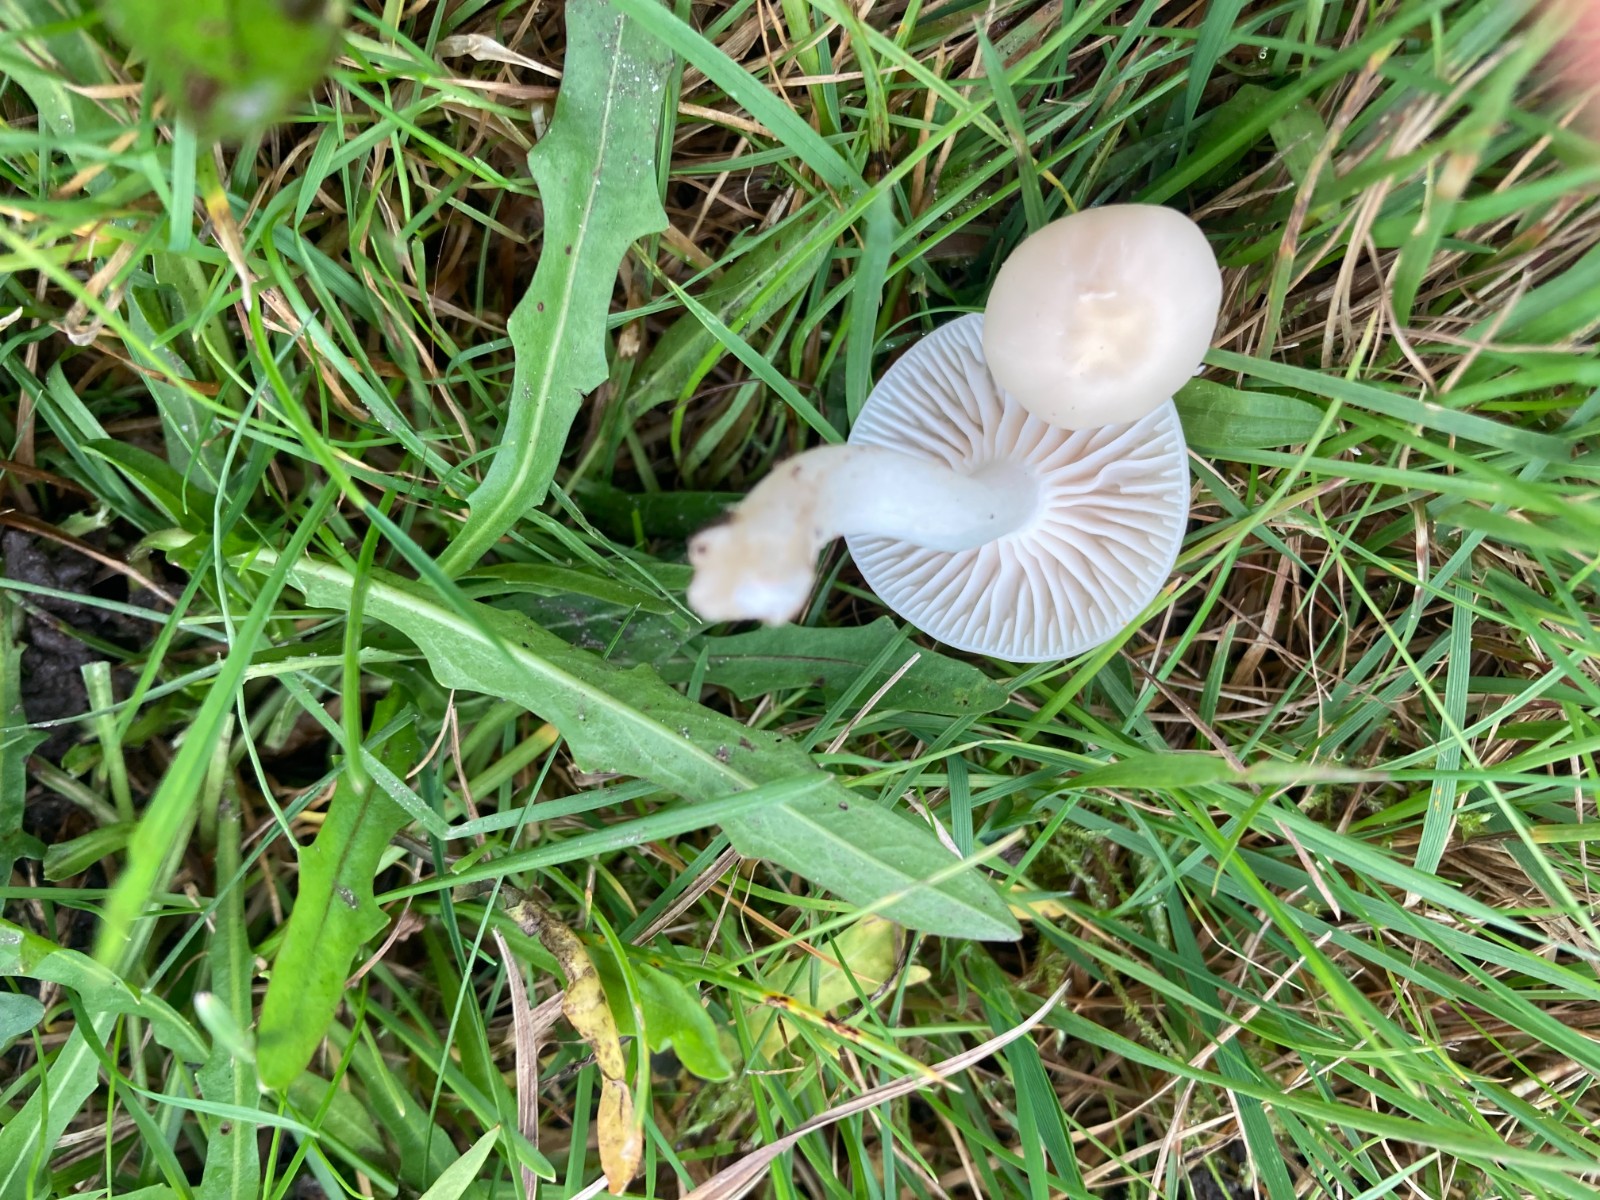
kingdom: Fungi
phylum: Basidiomycota
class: Agaricomycetes
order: Agaricales
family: Hygrophoraceae
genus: Cuphophyllus
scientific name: Cuphophyllus virgineus
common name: snehvid vokshat
